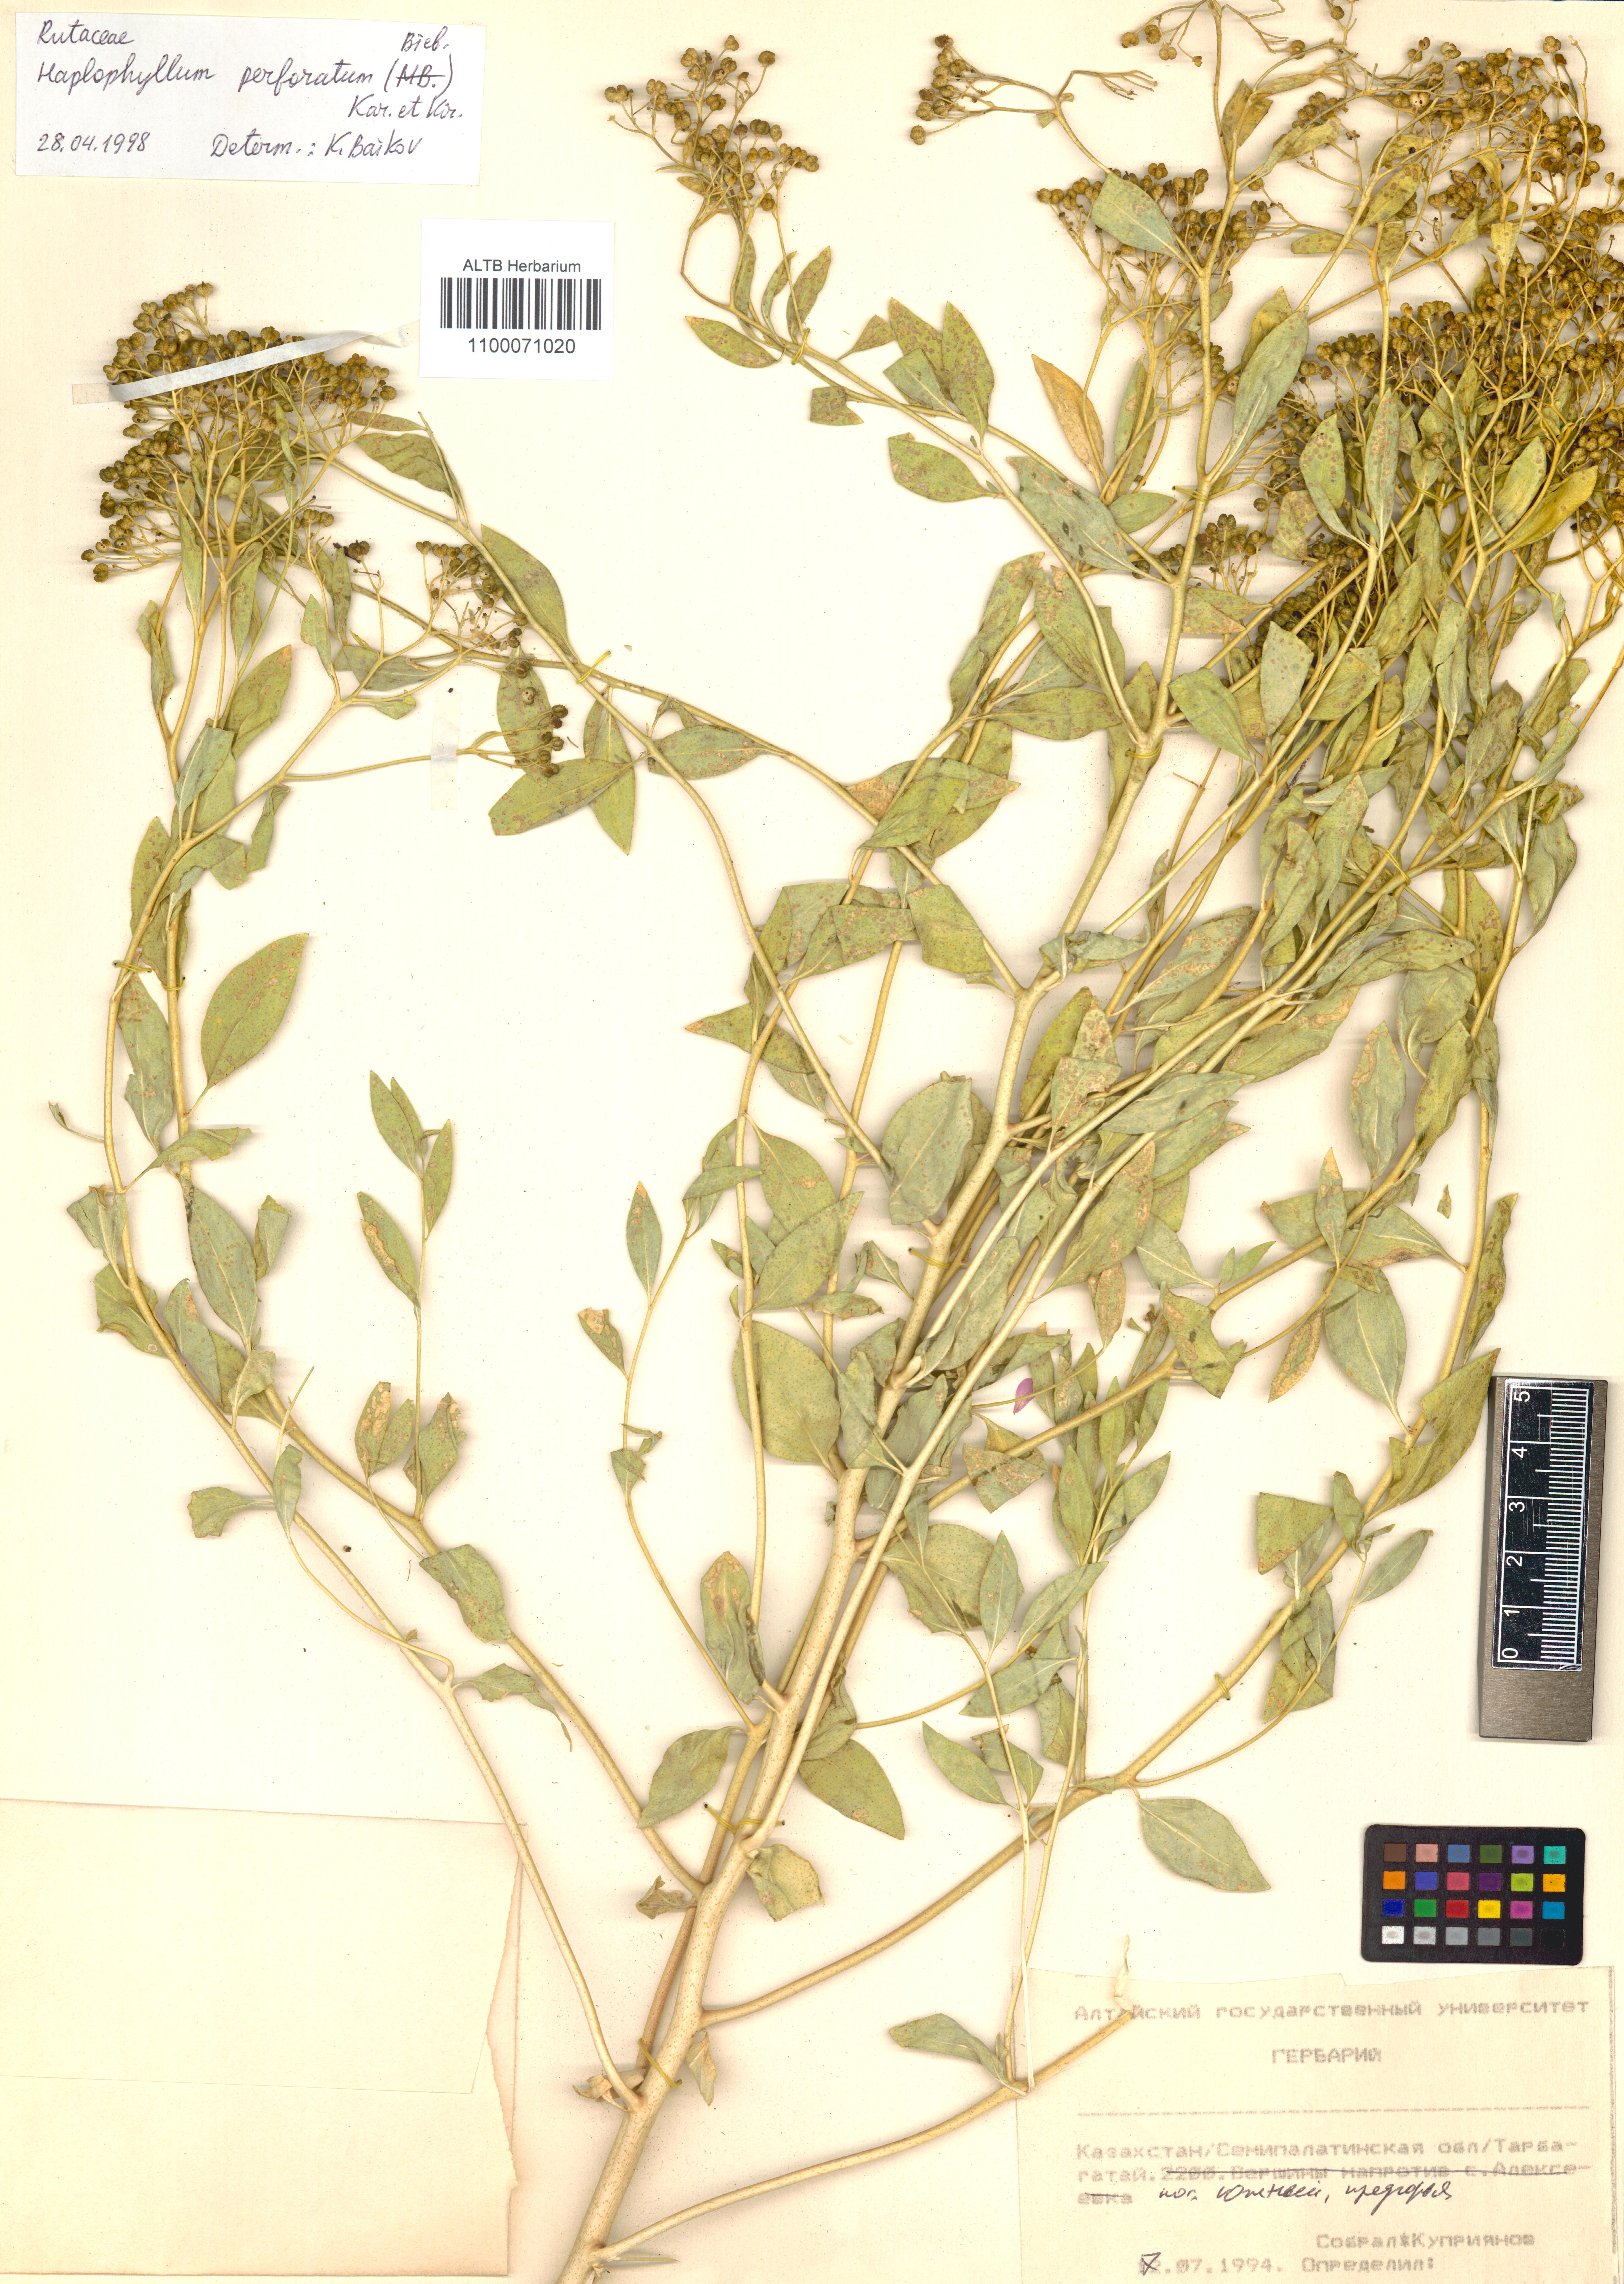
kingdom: Plantae
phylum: Tracheophyta
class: Magnoliopsida
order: Sapindales
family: Rutaceae
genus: Haplophyllum
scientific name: Haplophyllum acutifolium
